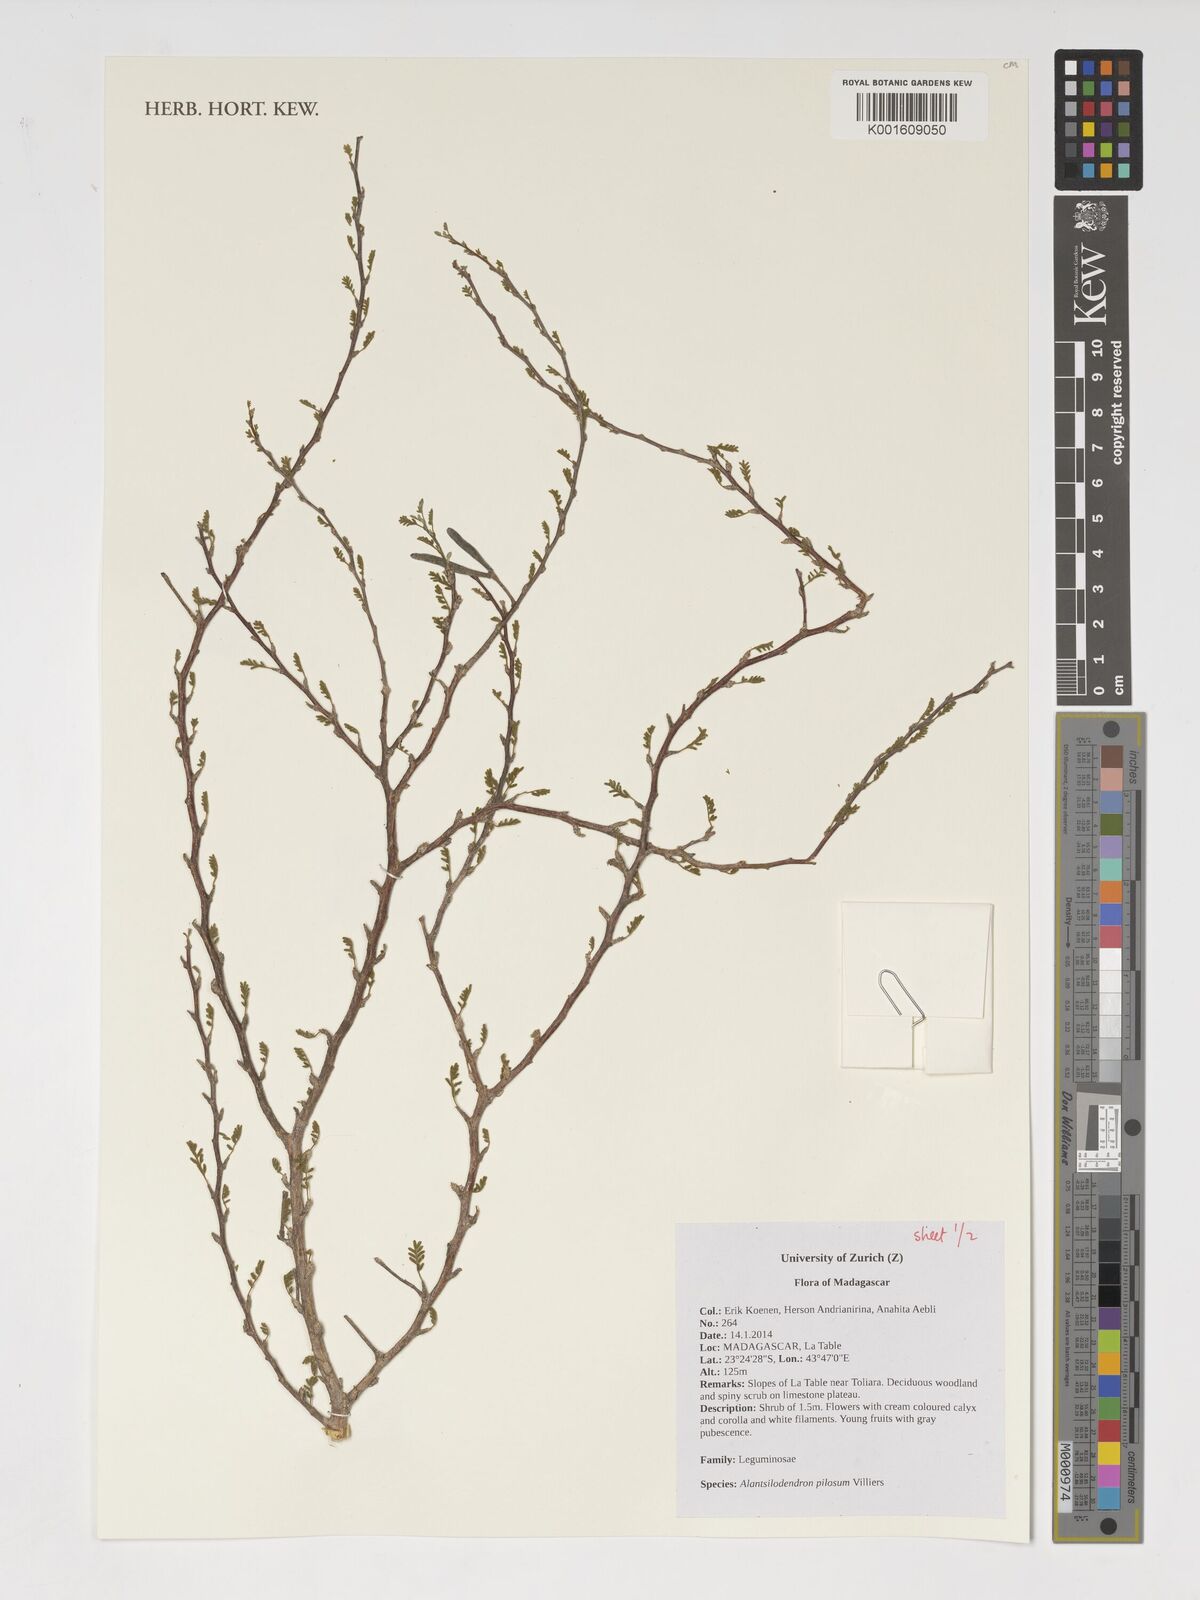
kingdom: Plantae
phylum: Tracheophyta
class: Magnoliopsida
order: Fabales
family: Fabaceae
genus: Alantsilodendron
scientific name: Alantsilodendron pilosum
